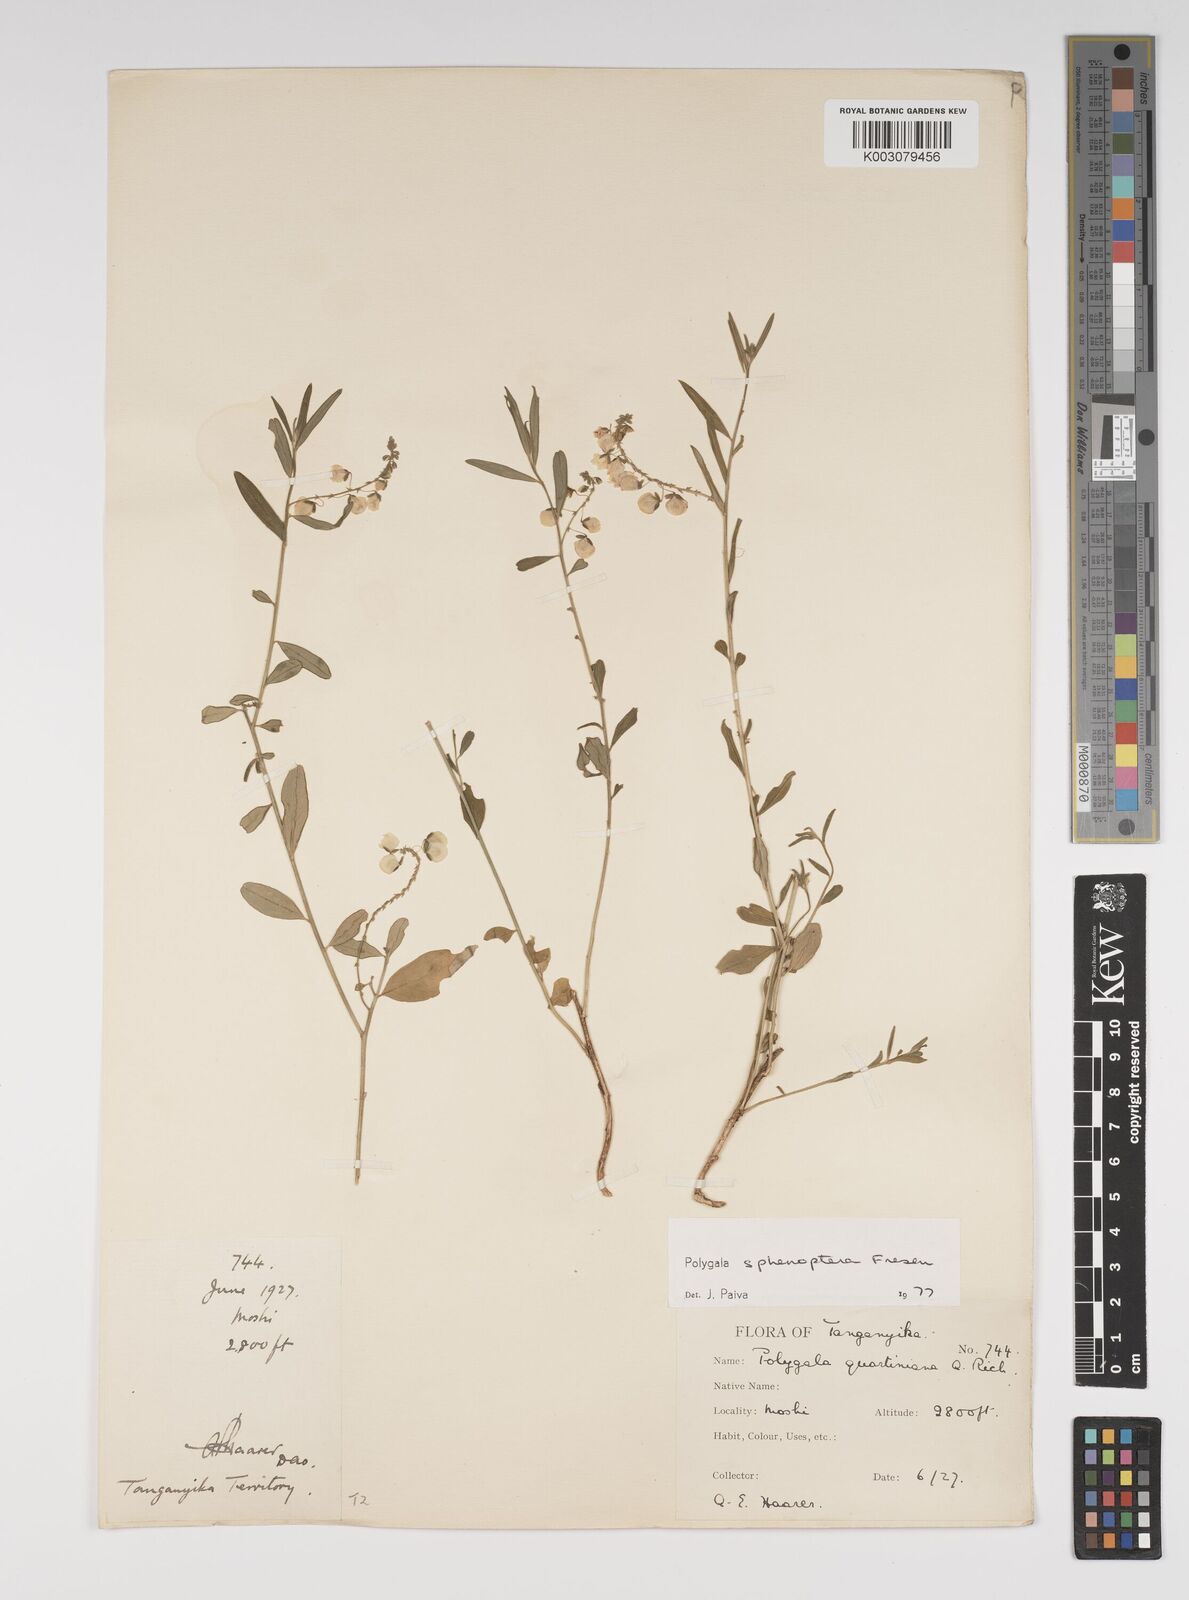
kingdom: Plantae
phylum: Tracheophyta
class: Magnoliopsida
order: Fabales
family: Polygalaceae
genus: Polygala
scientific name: Polygala sphenoptera
